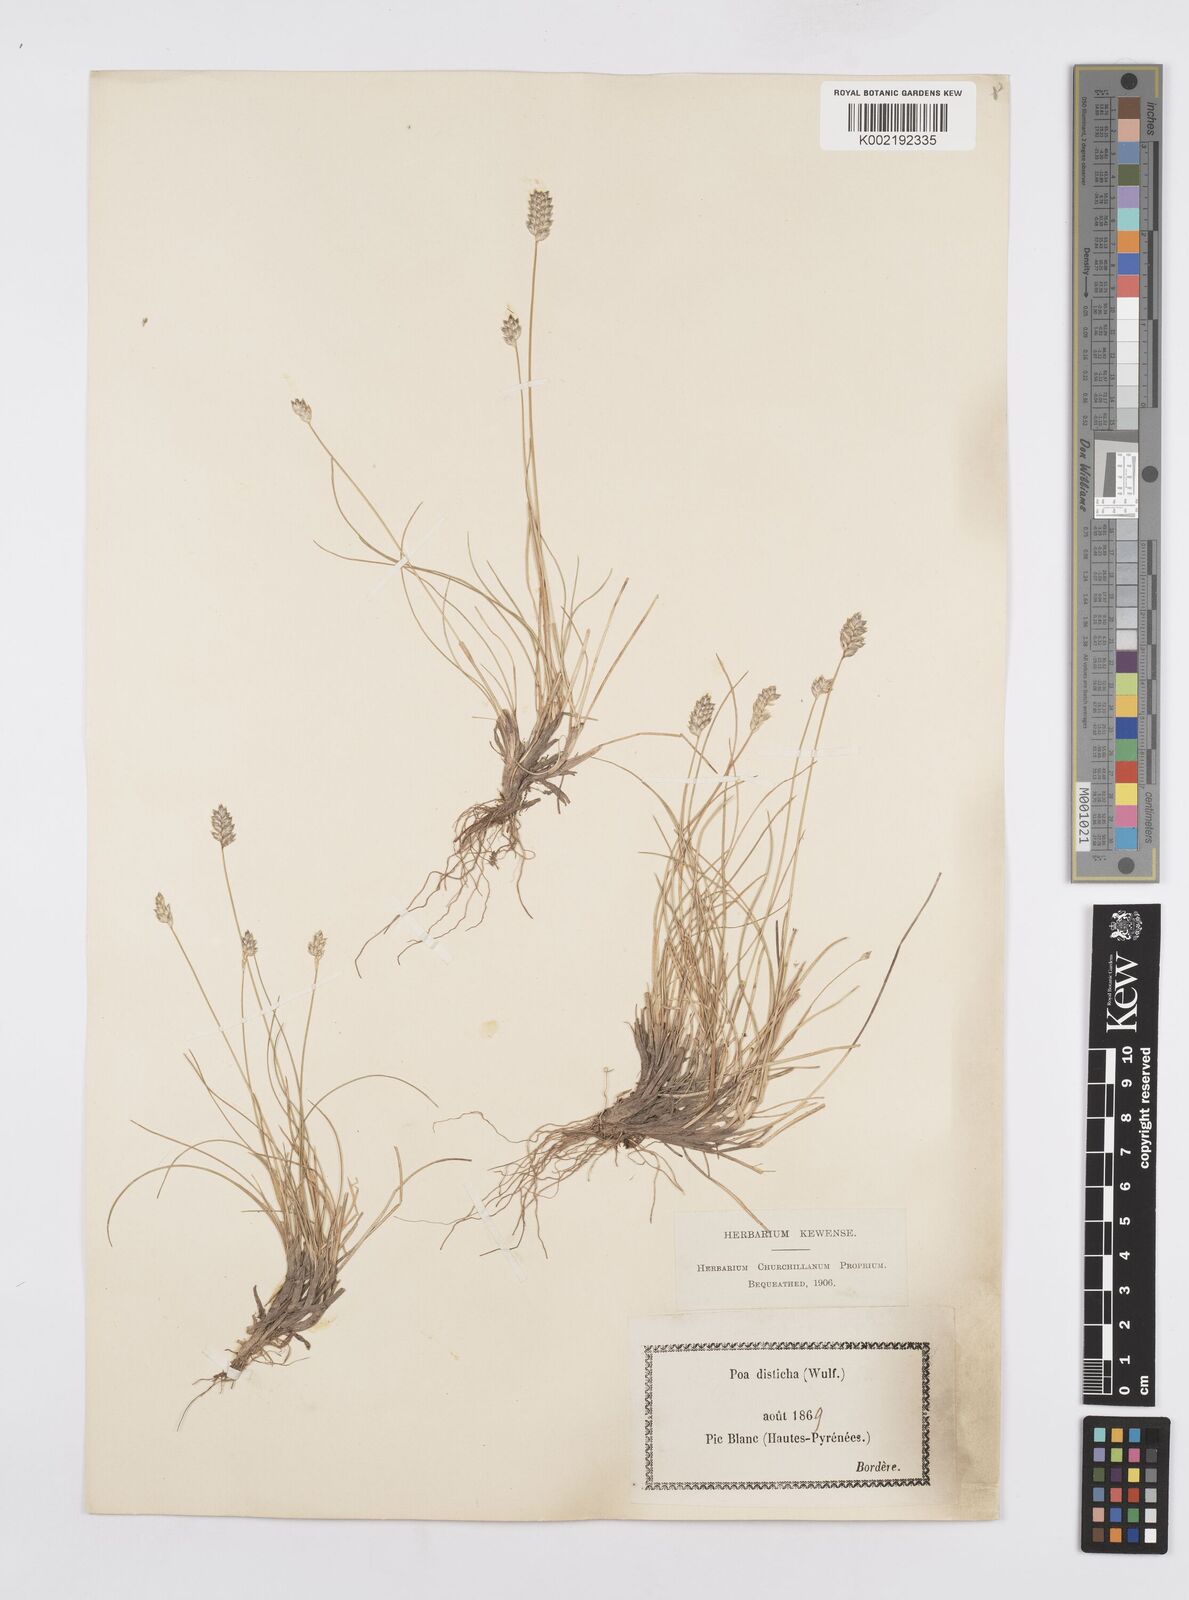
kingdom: Plantae
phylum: Tracheophyta
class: Liliopsida
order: Poales
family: Poaceae
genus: Oreochloa
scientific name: Oreochloa elegans
